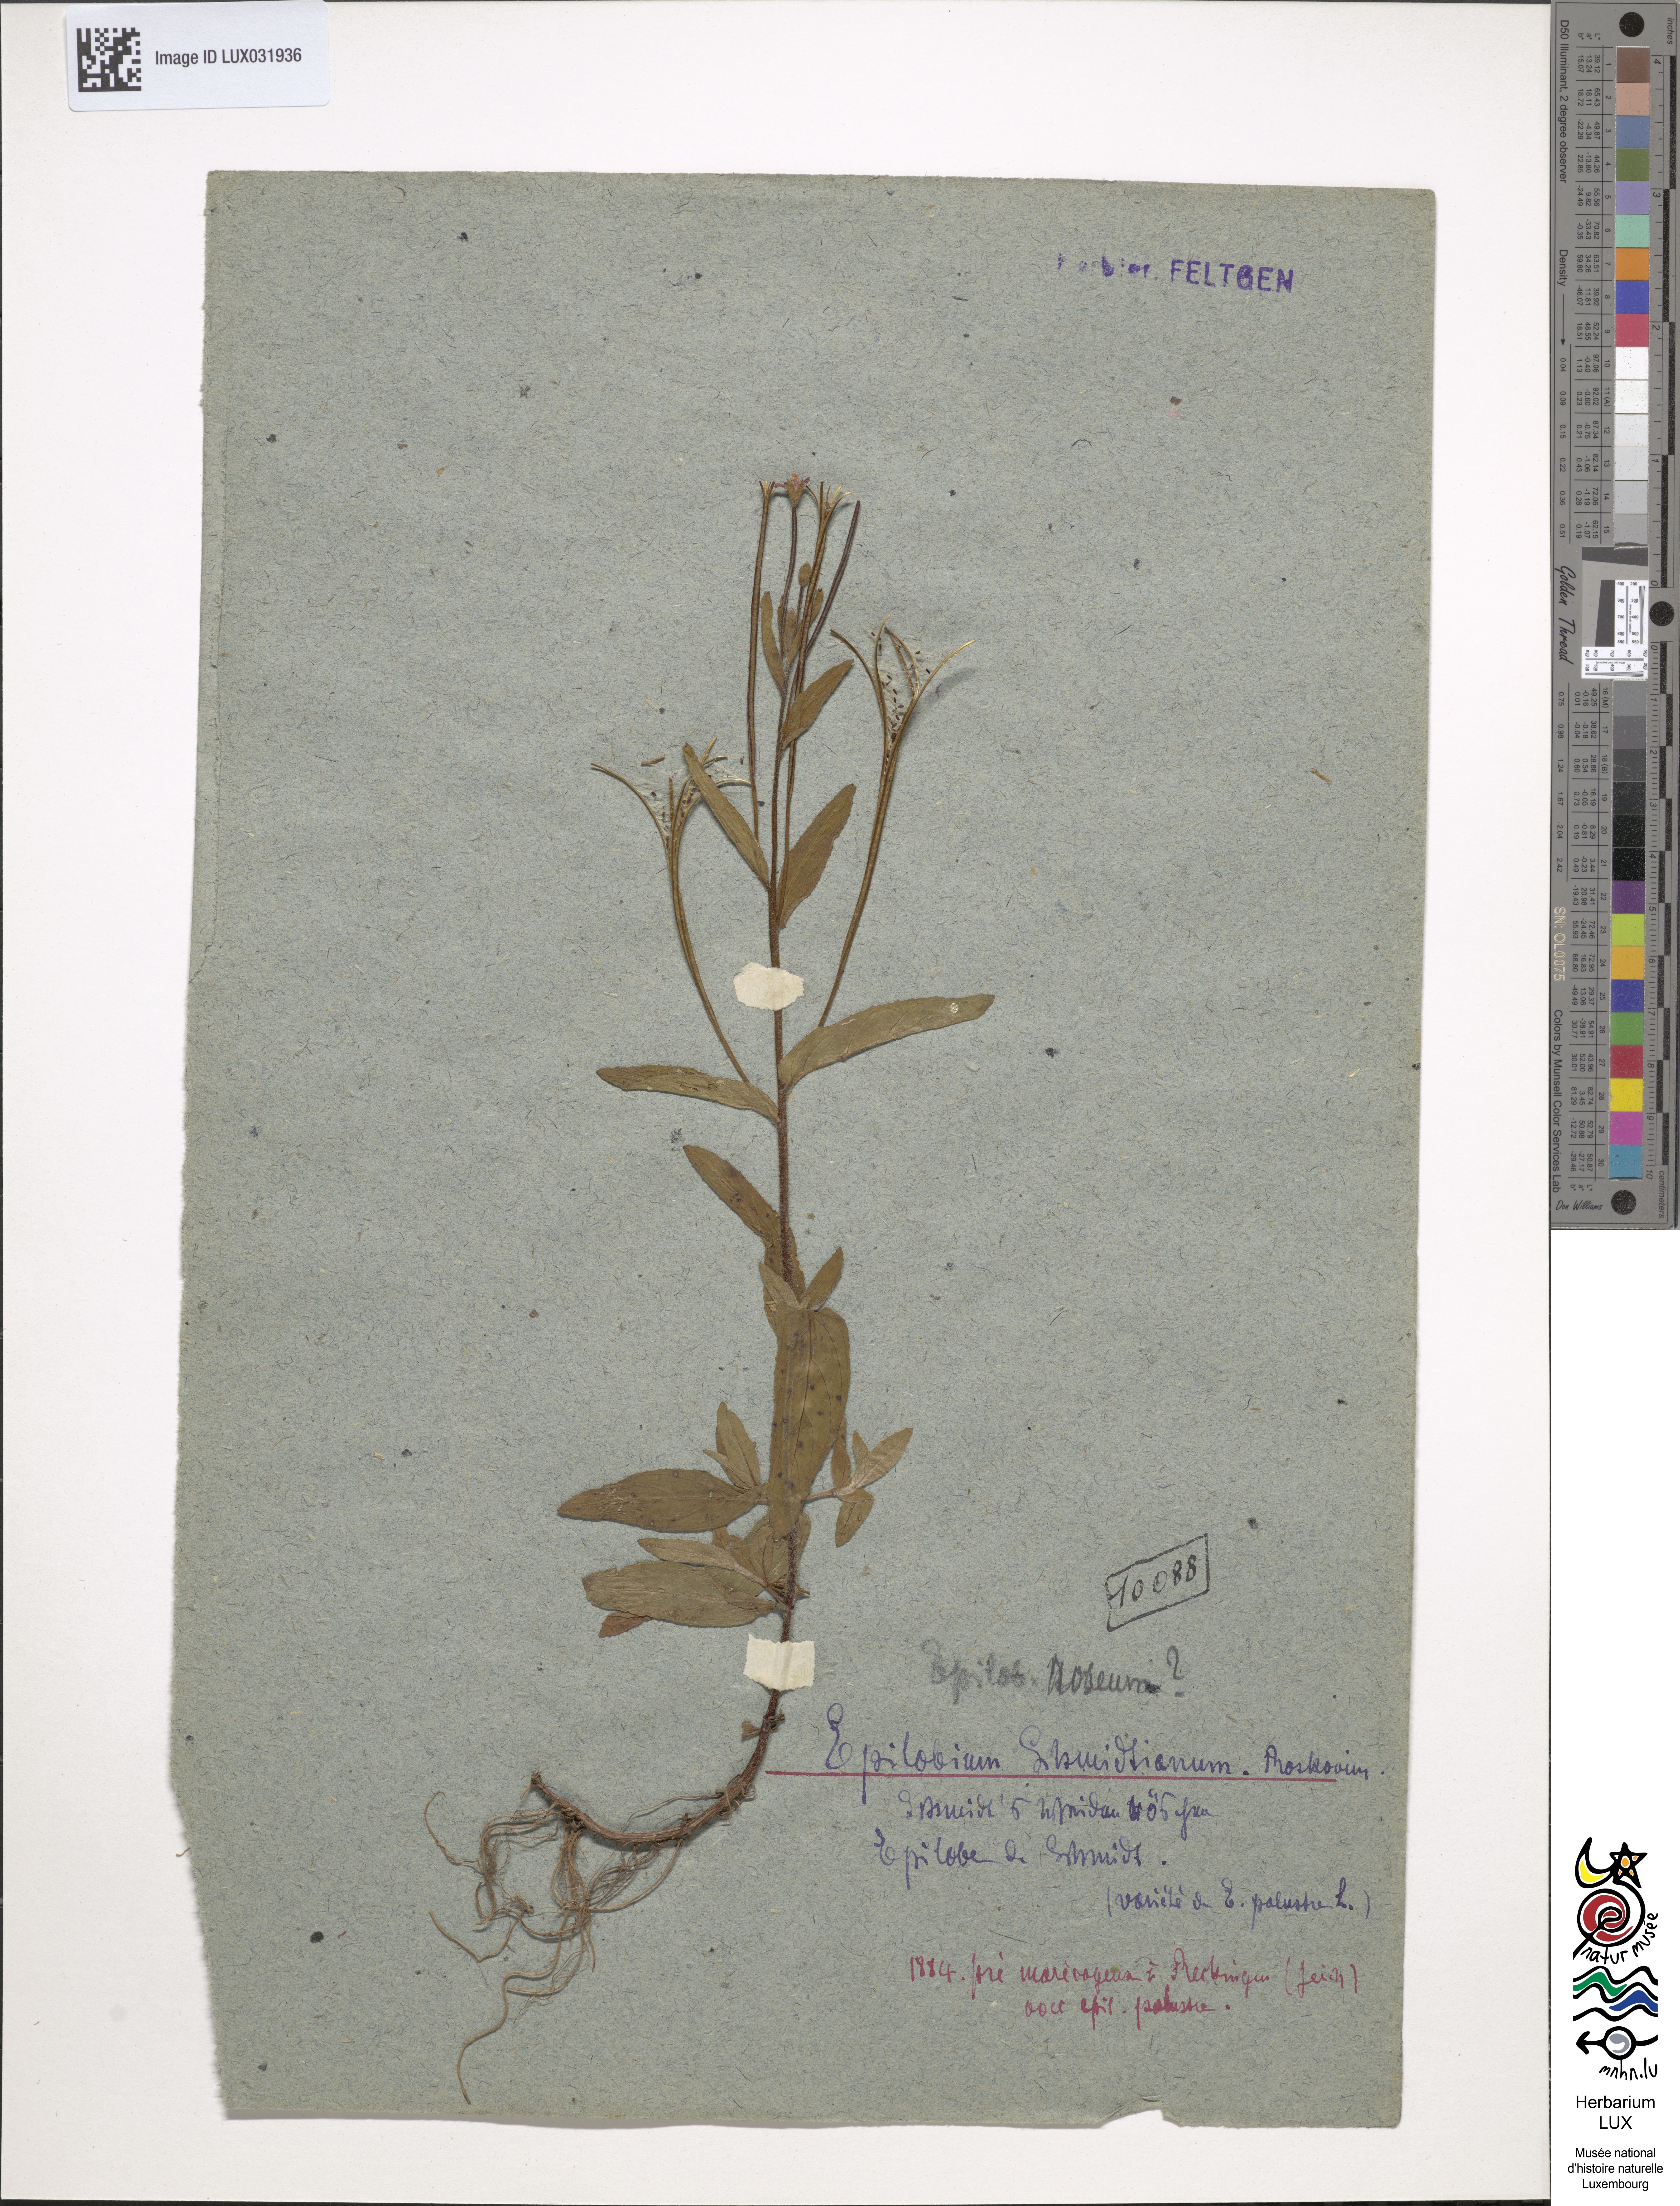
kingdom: Plantae
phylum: Tracheophyta
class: Magnoliopsida
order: Myrtales
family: Onagraceae
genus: Epilobium
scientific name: Epilobium palustre
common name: Marsh willowherb
